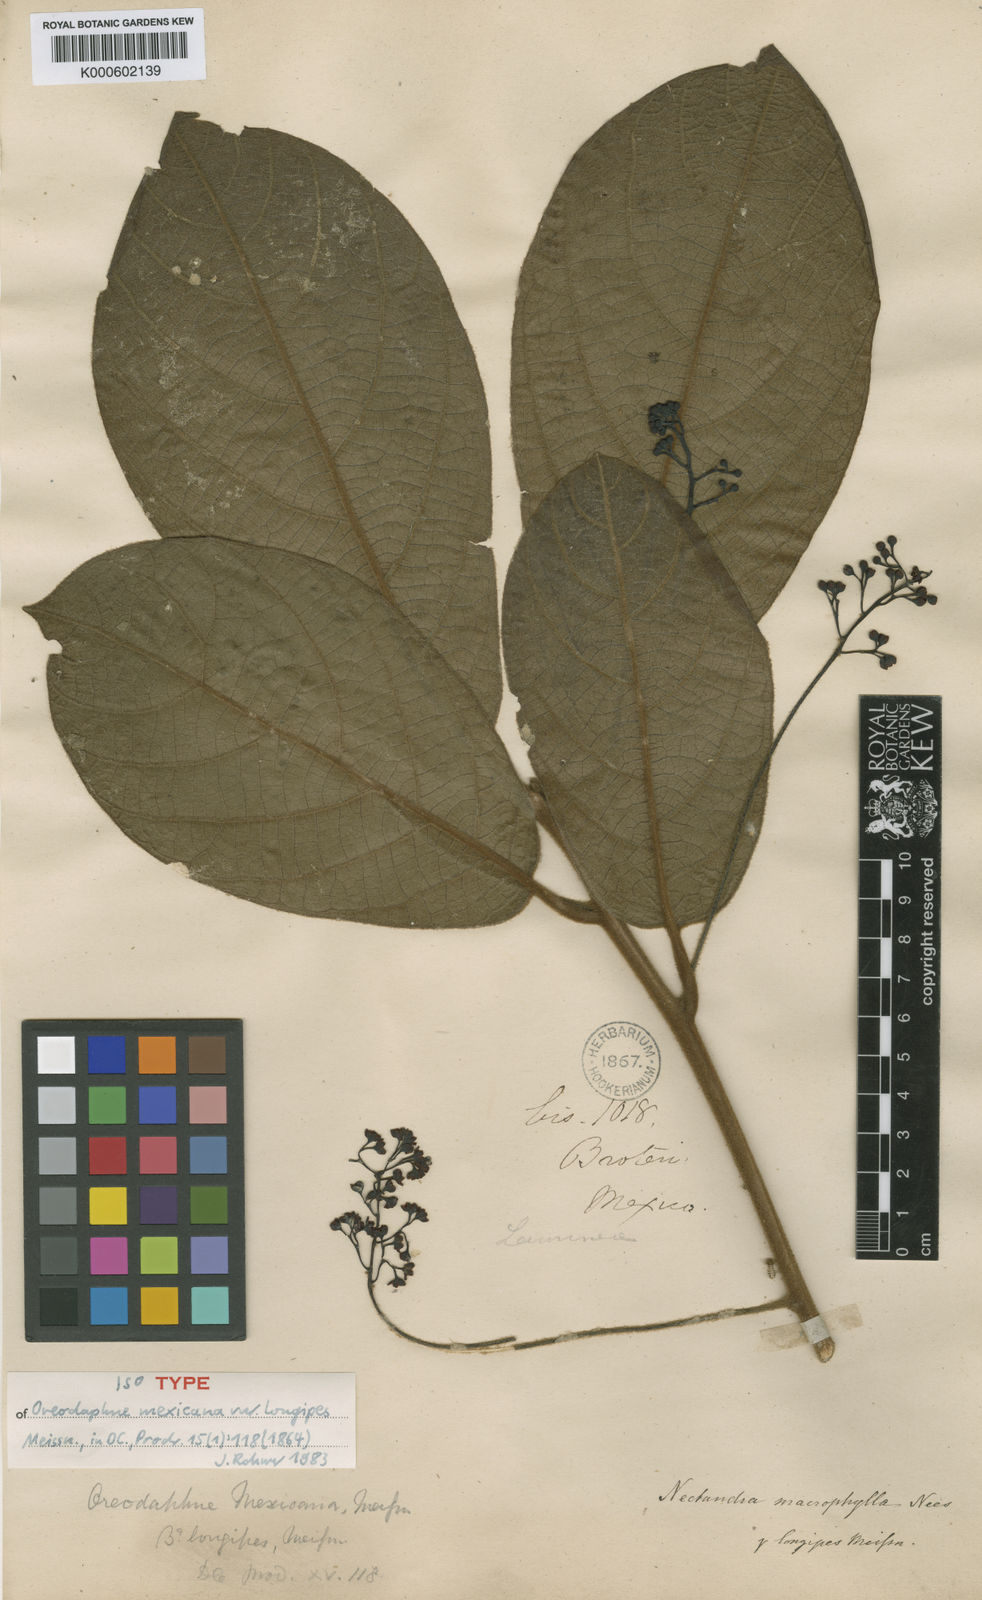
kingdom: Plantae
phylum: Tracheophyta
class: Magnoliopsida
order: Laurales
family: Lauraceae
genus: Ocotea
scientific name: Ocotea macrophylla
